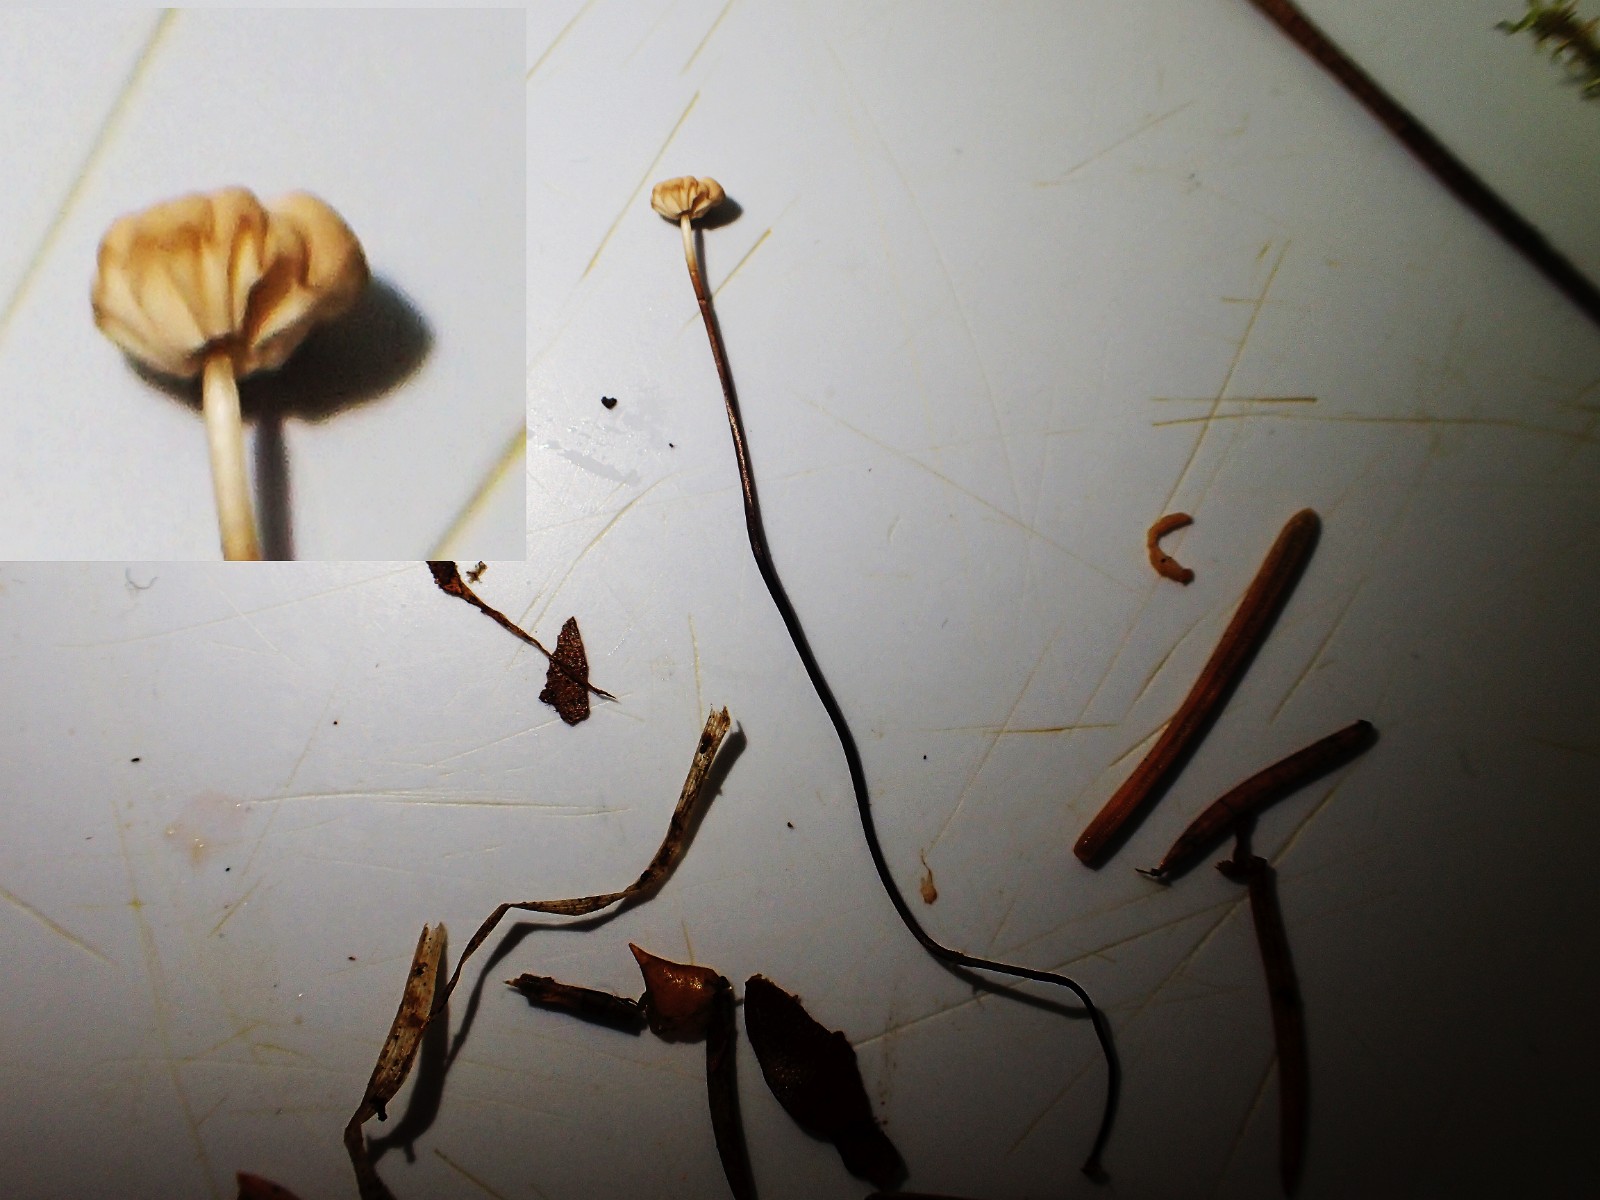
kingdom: Fungi
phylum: Basidiomycota
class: Agaricomycetes
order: Agaricales
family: Marasmiaceae
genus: Marasmius
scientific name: Marasmius wettsteinii
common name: Wettsteins bruskhat
